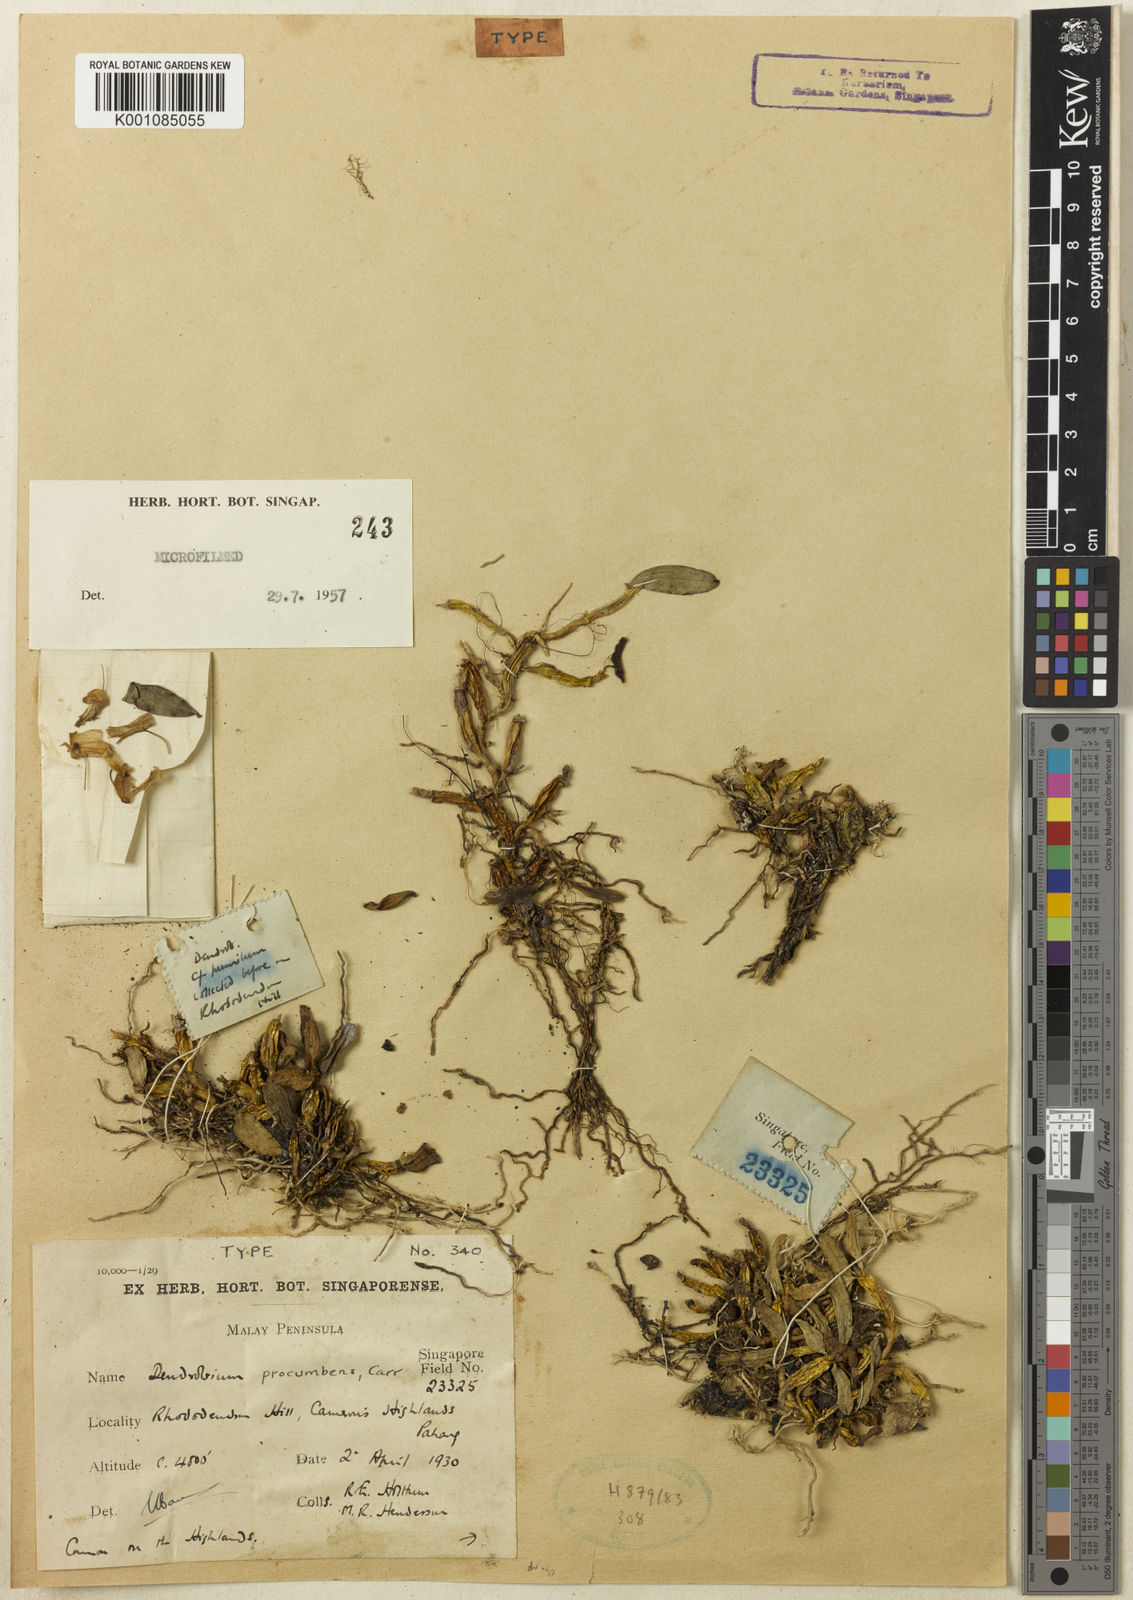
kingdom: Plantae
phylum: Tracheophyta
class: Liliopsida
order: Asparagales
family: Orchidaceae
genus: Dendrobium
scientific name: Dendrobium procumbens
